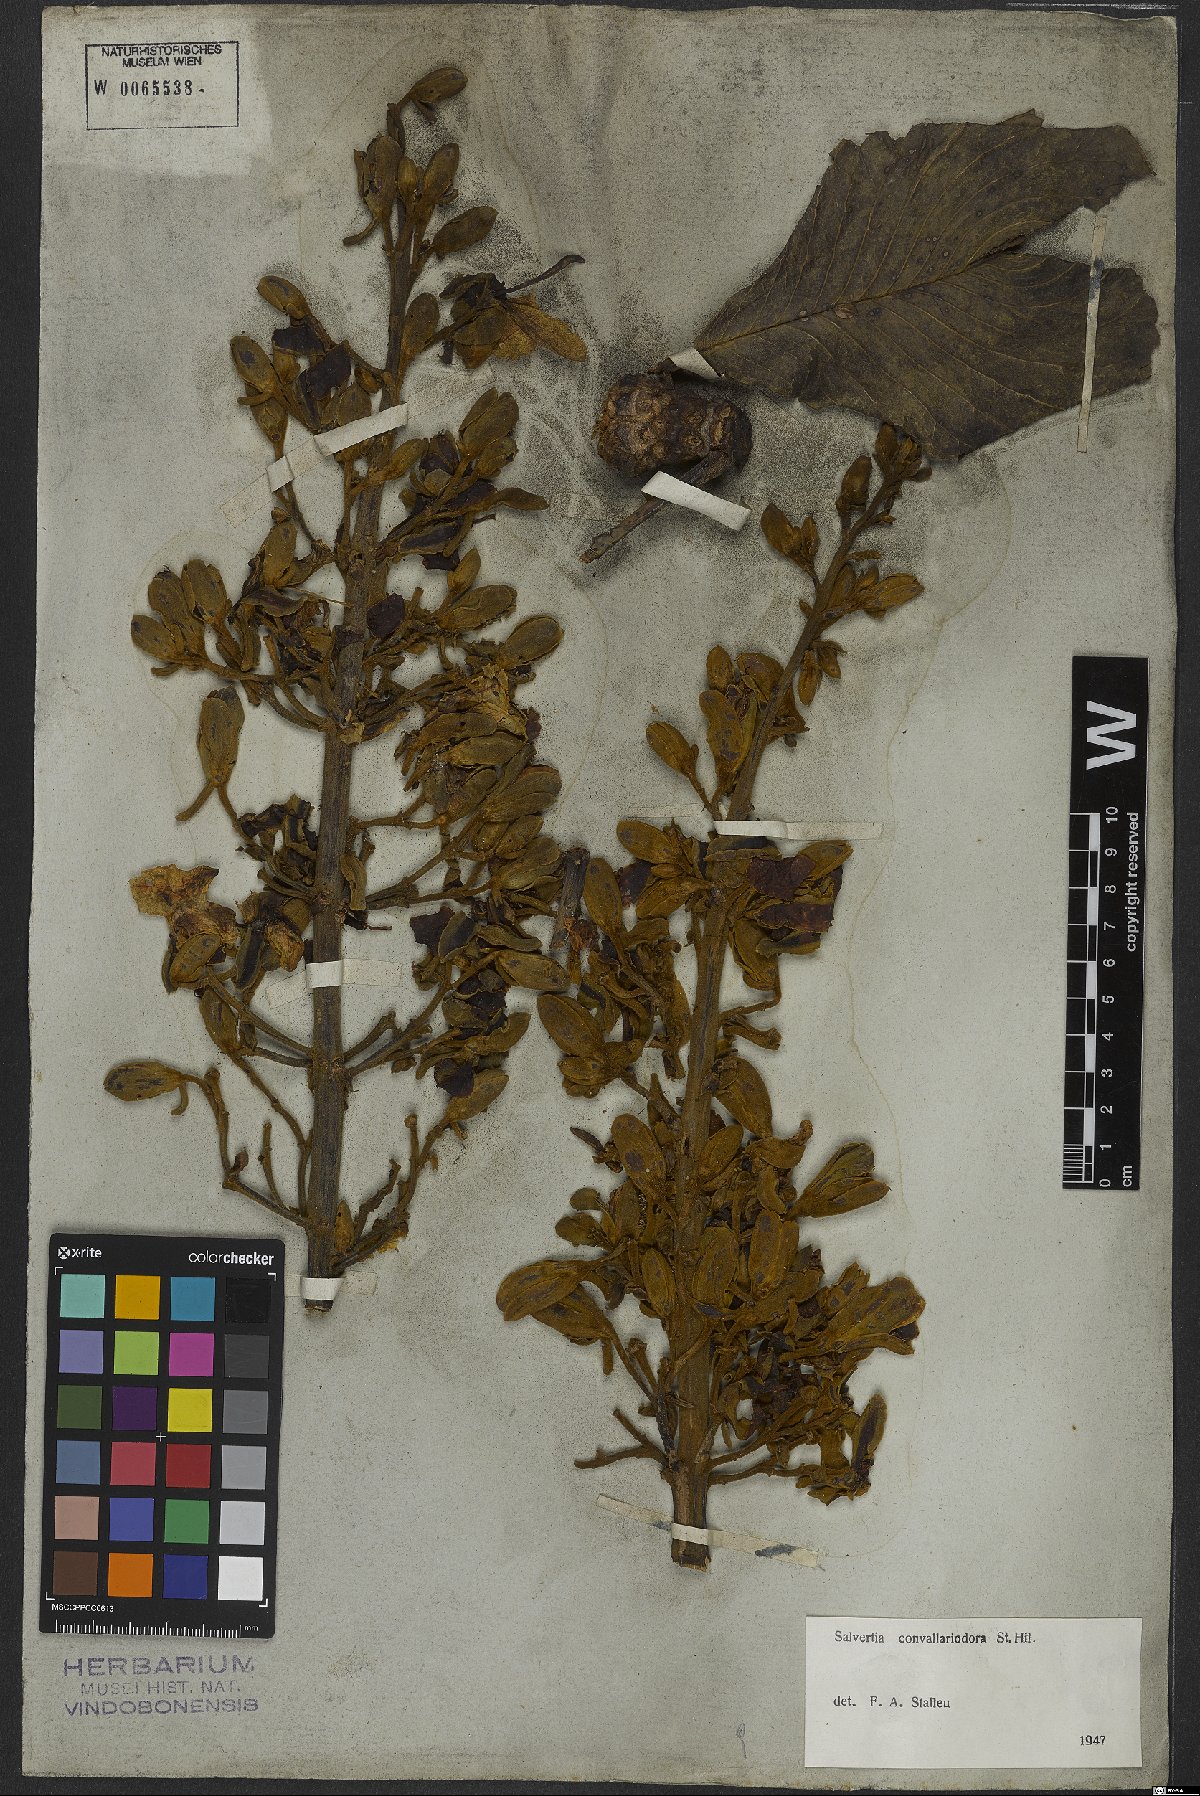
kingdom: Plantae
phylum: Tracheophyta
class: Magnoliopsida
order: Myrtales
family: Vochysiaceae
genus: Salvertia
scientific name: Salvertia convallariodora
